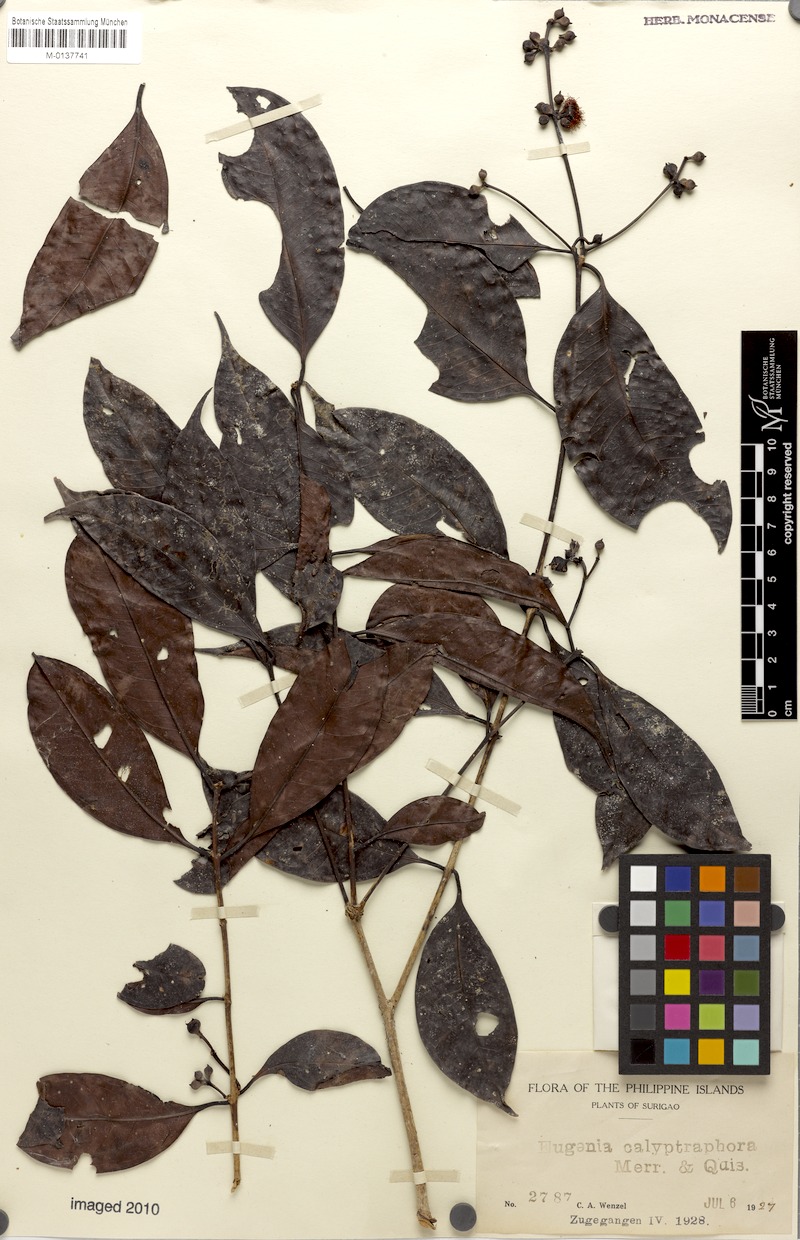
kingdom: Plantae
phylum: Tracheophyta
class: Magnoliopsida
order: Myrtales
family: Myrtaceae
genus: Syzygium
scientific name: Syzygium cumini
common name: Java plum
